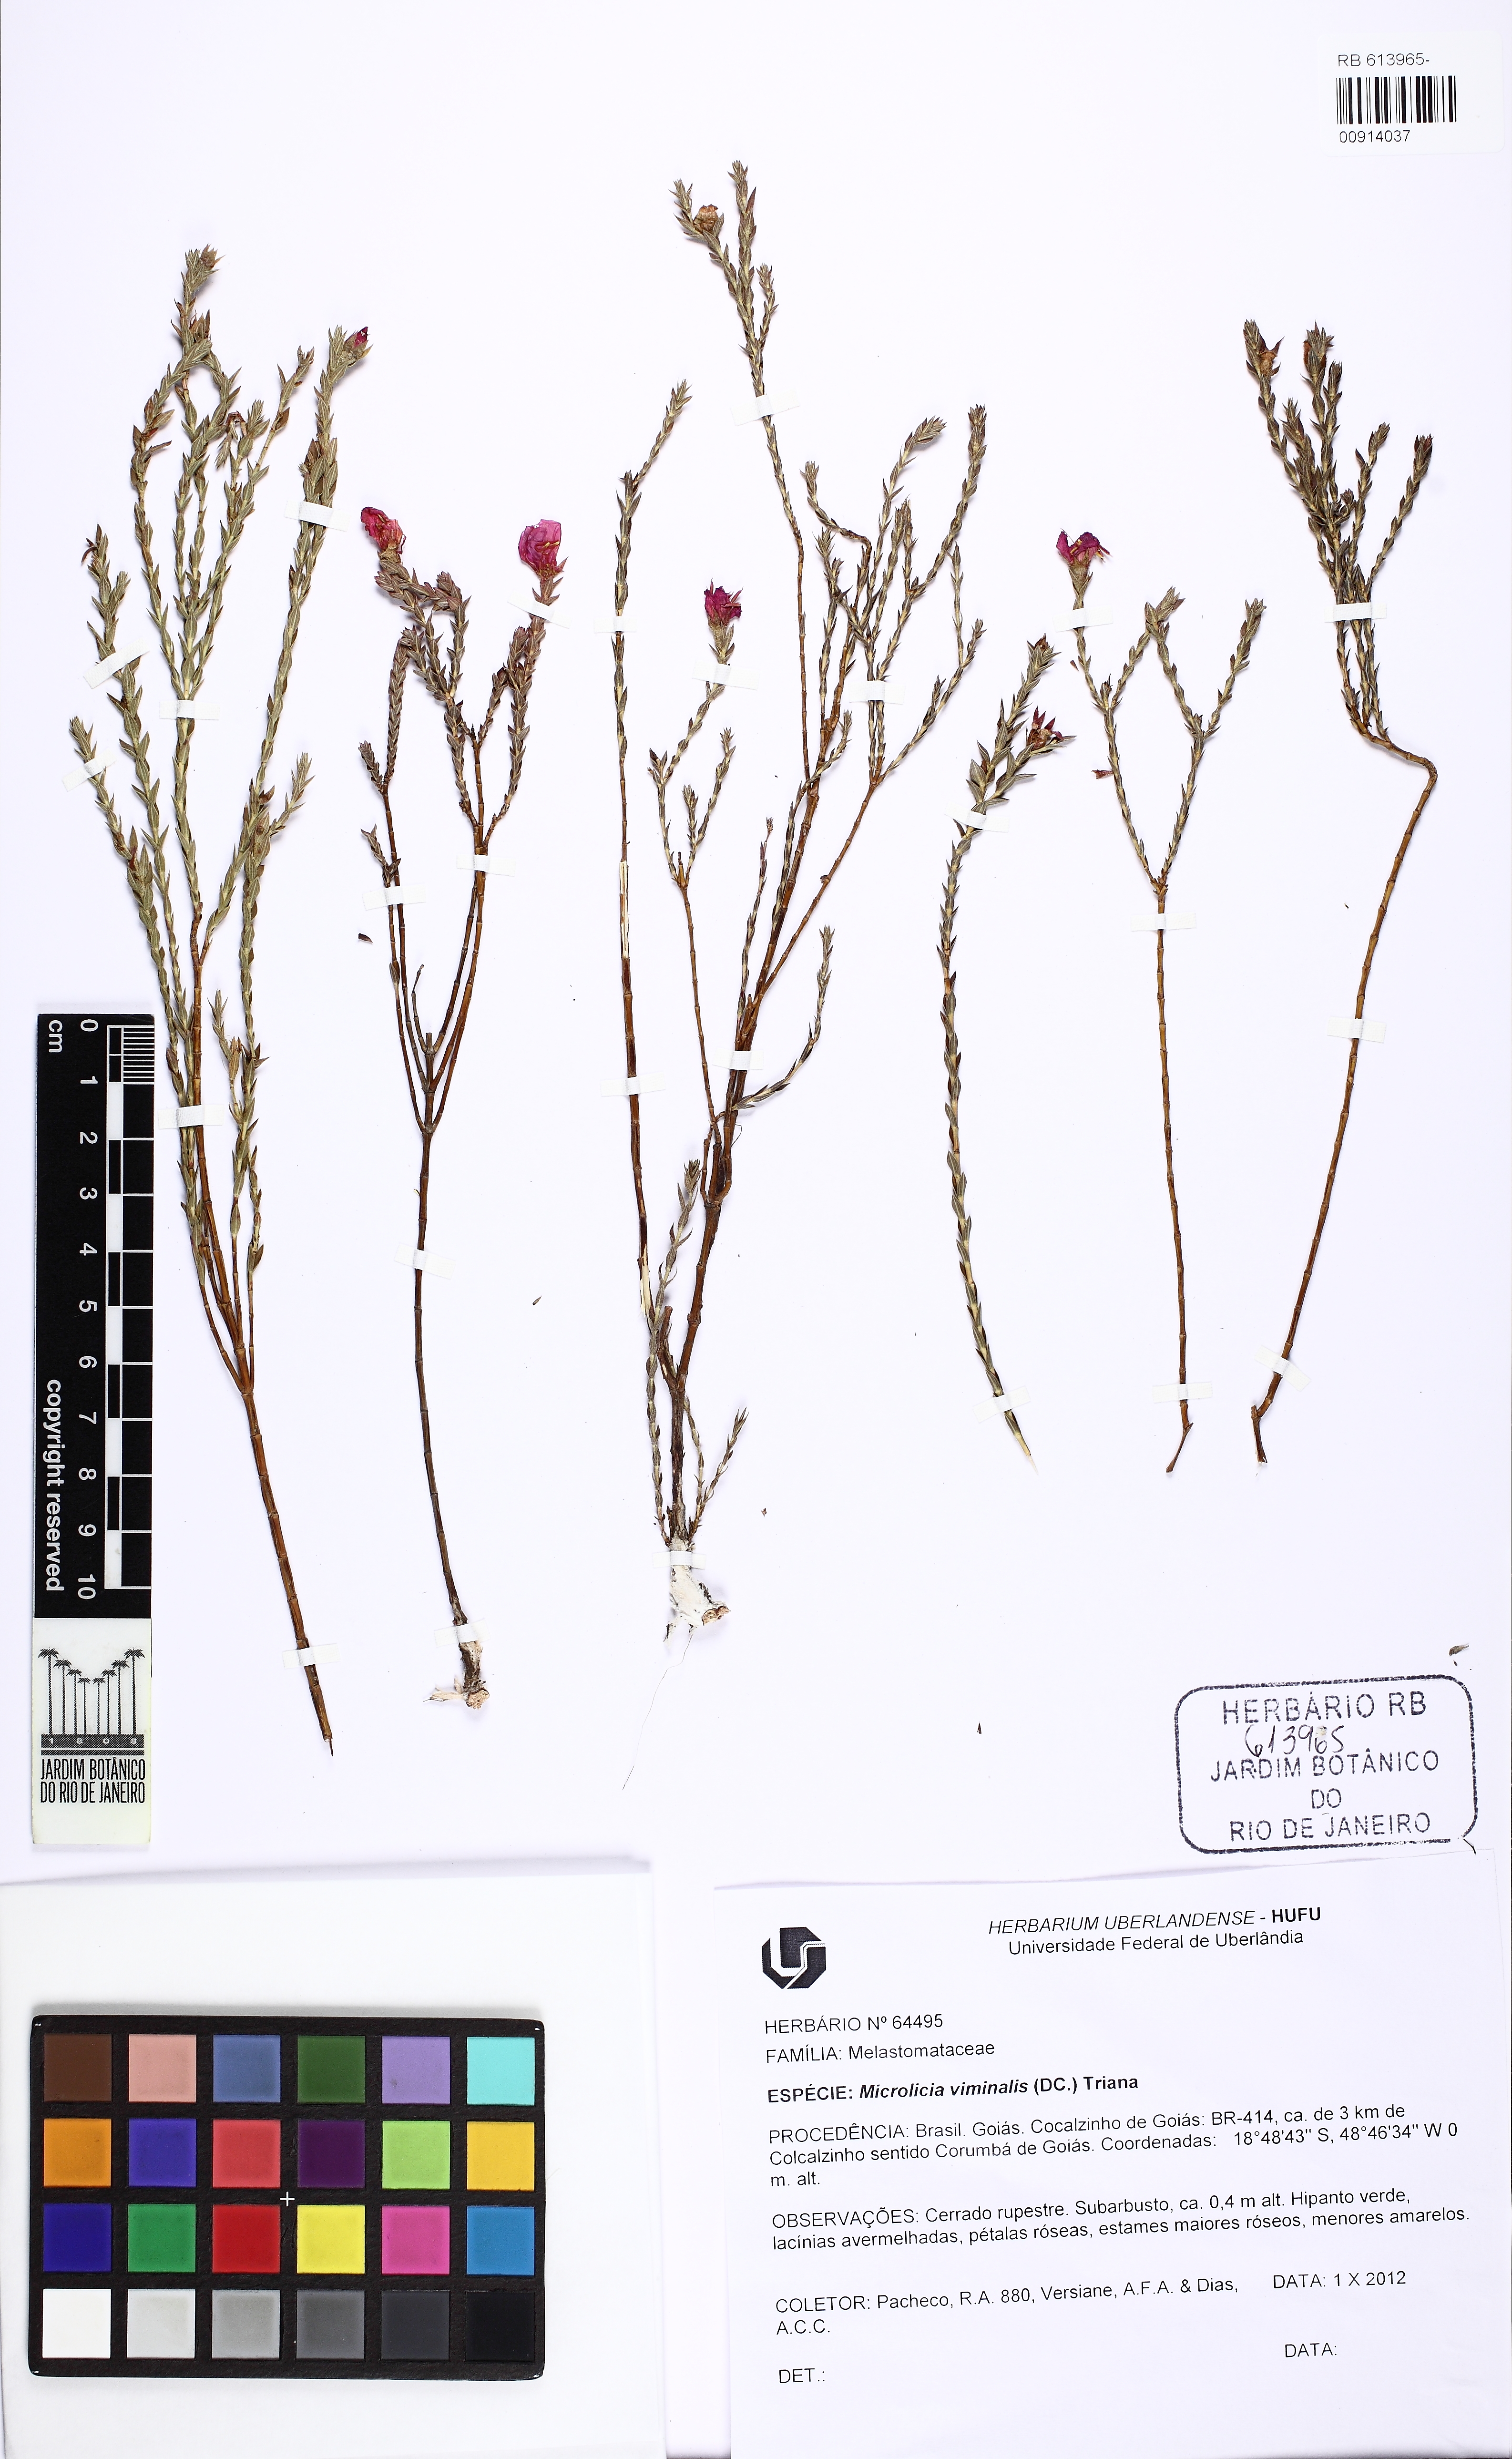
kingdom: Plantae
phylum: Tracheophyta
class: Magnoliopsida
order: Myrtales
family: Melastomataceae
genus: Microlicia
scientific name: Microlicia viminalis
